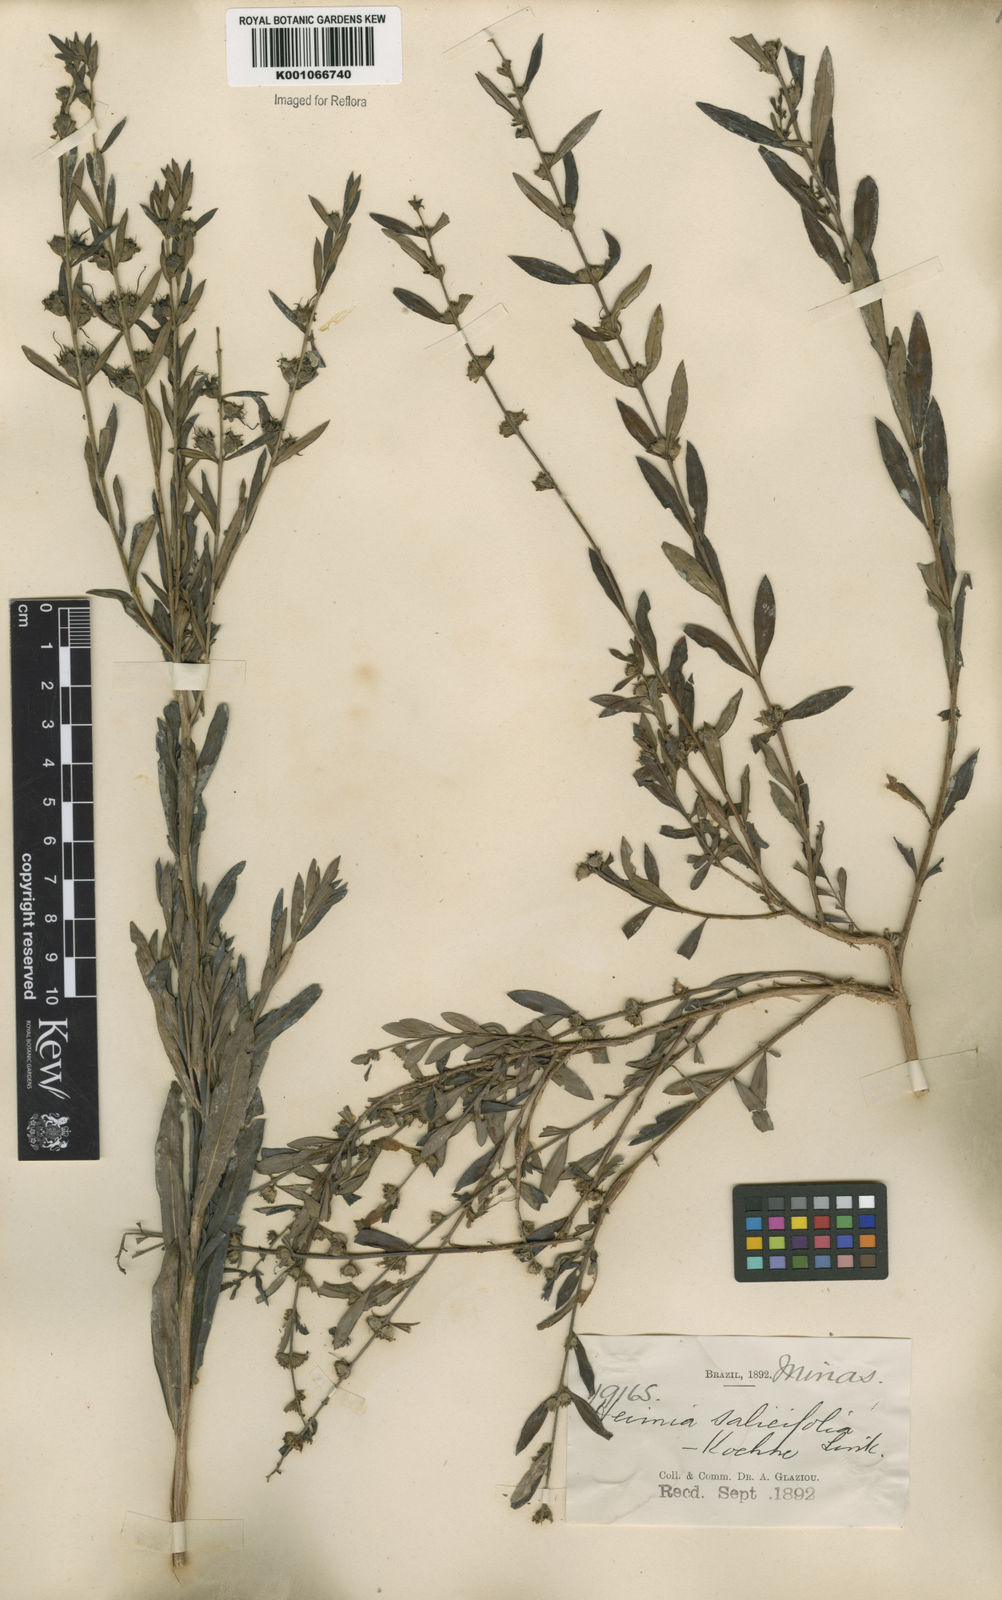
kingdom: Plantae
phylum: Tracheophyta
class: Magnoliopsida
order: Myrtales
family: Lythraceae
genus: Heimia
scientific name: Heimia salicifolia
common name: Willow-leaf heimia
